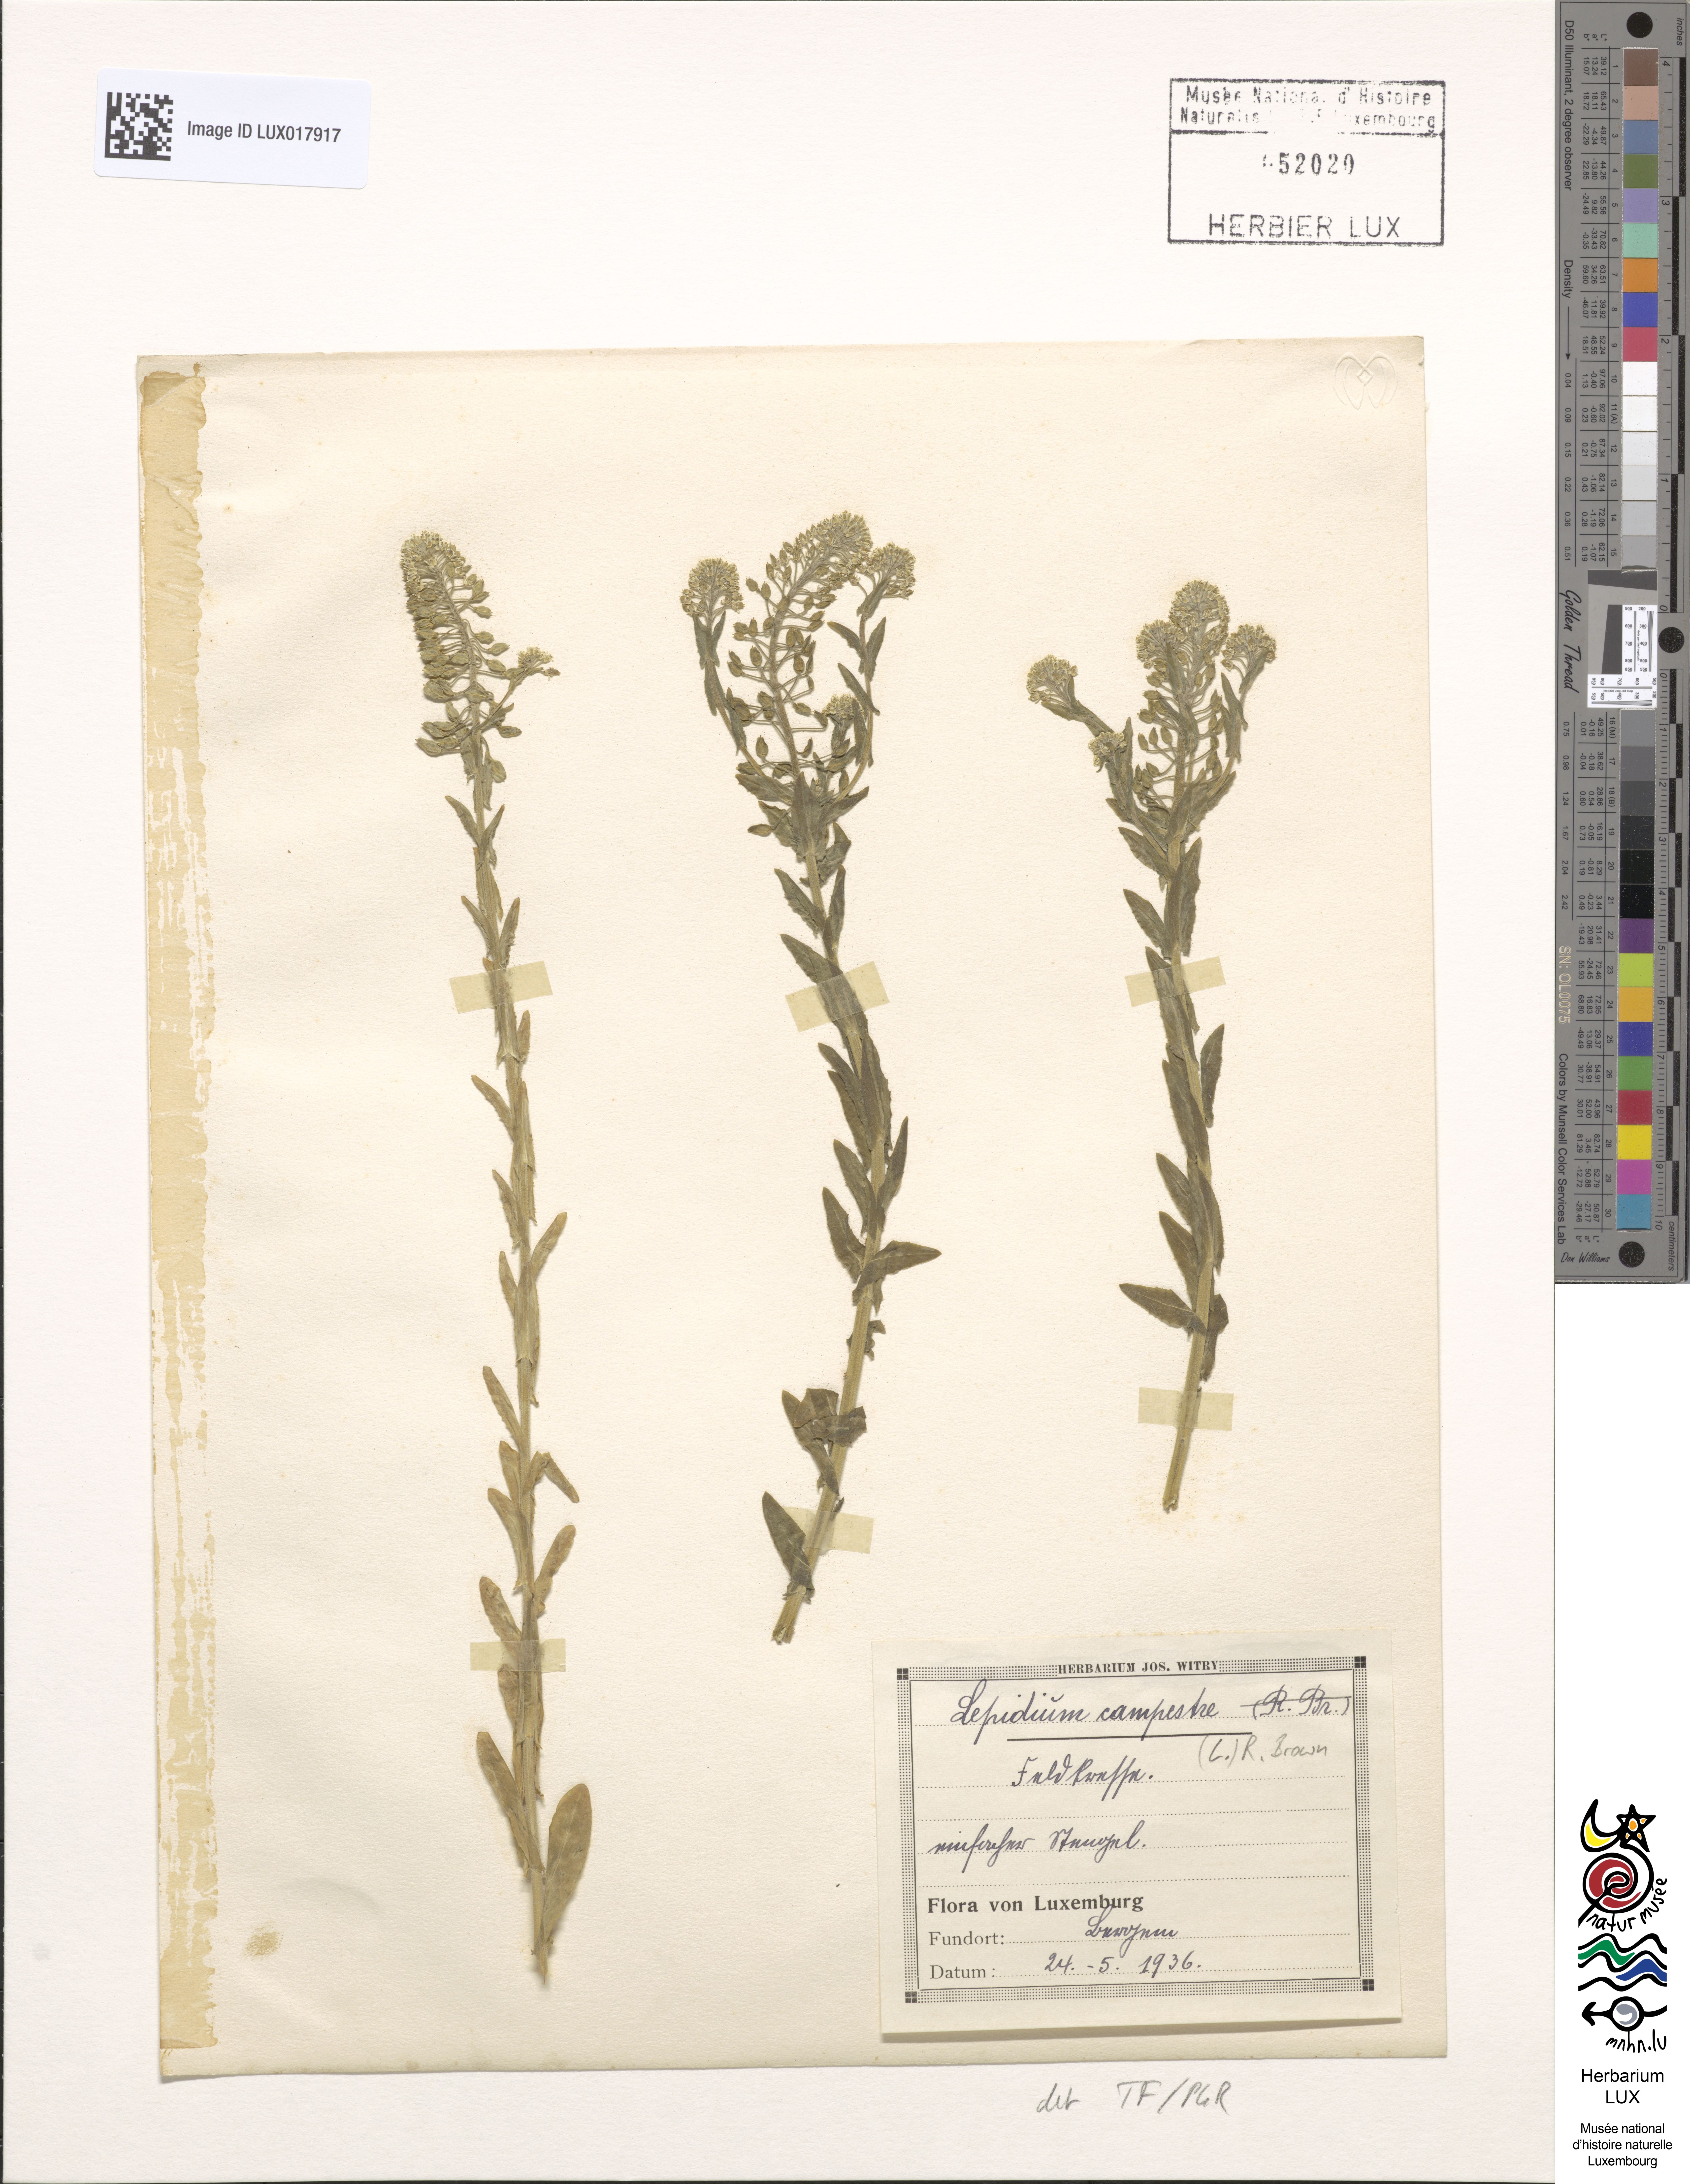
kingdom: Plantae
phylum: Tracheophyta
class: Magnoliopsida
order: Brassicales
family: Brassicaceae
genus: Lepidium
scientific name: Lepidium campestre
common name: Field pepperwort
